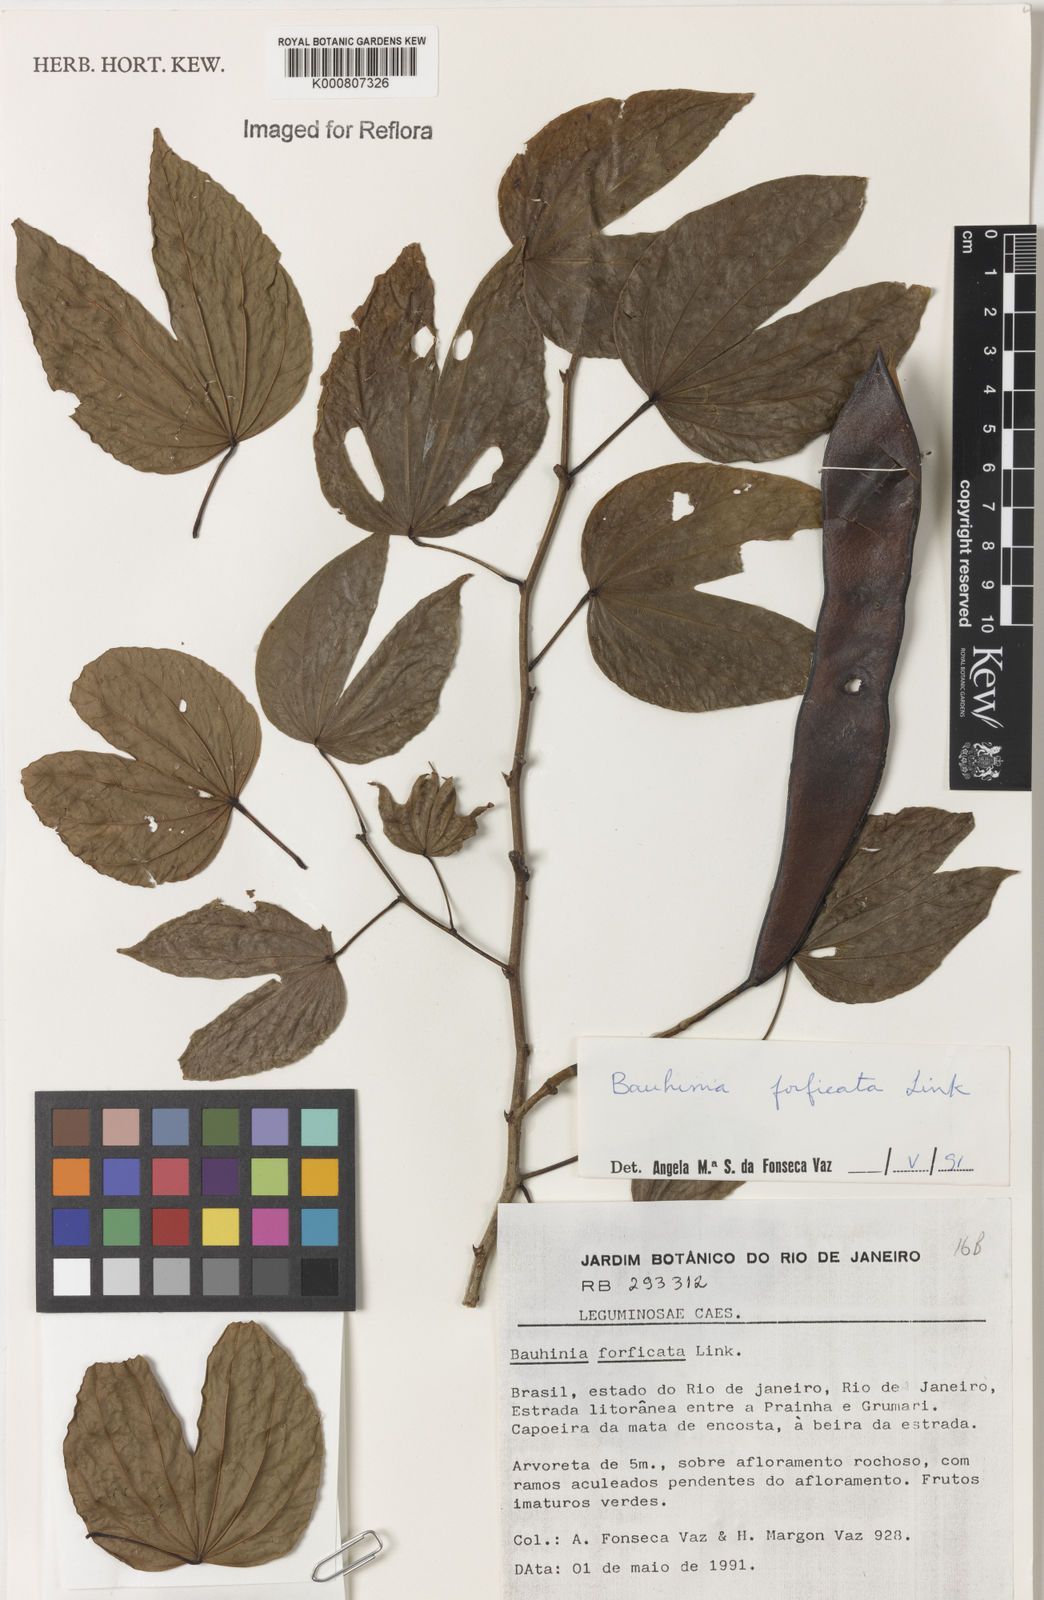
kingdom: Plantae
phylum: Tracheophyta
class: Magnoliopsida
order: Fabales
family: Fabaceae
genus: Bauhinia
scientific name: Bauhinia forficata
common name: Orchid tree
